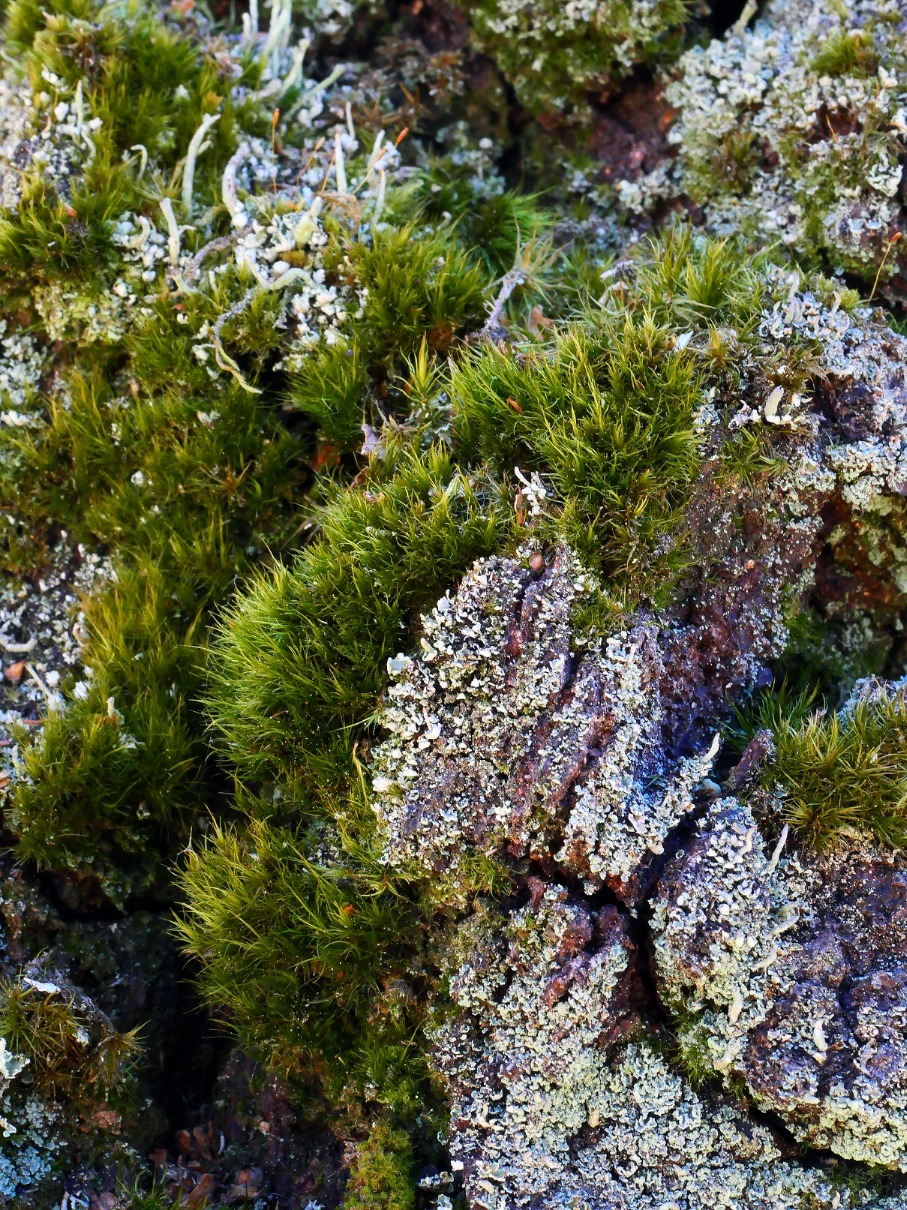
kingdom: Plantae
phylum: Bryophyta
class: Bryopsida
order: Dicranales
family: Dicranaceae
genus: Orthodicranum
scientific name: Orthodicranum tauricum
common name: Skør tyndvinge
